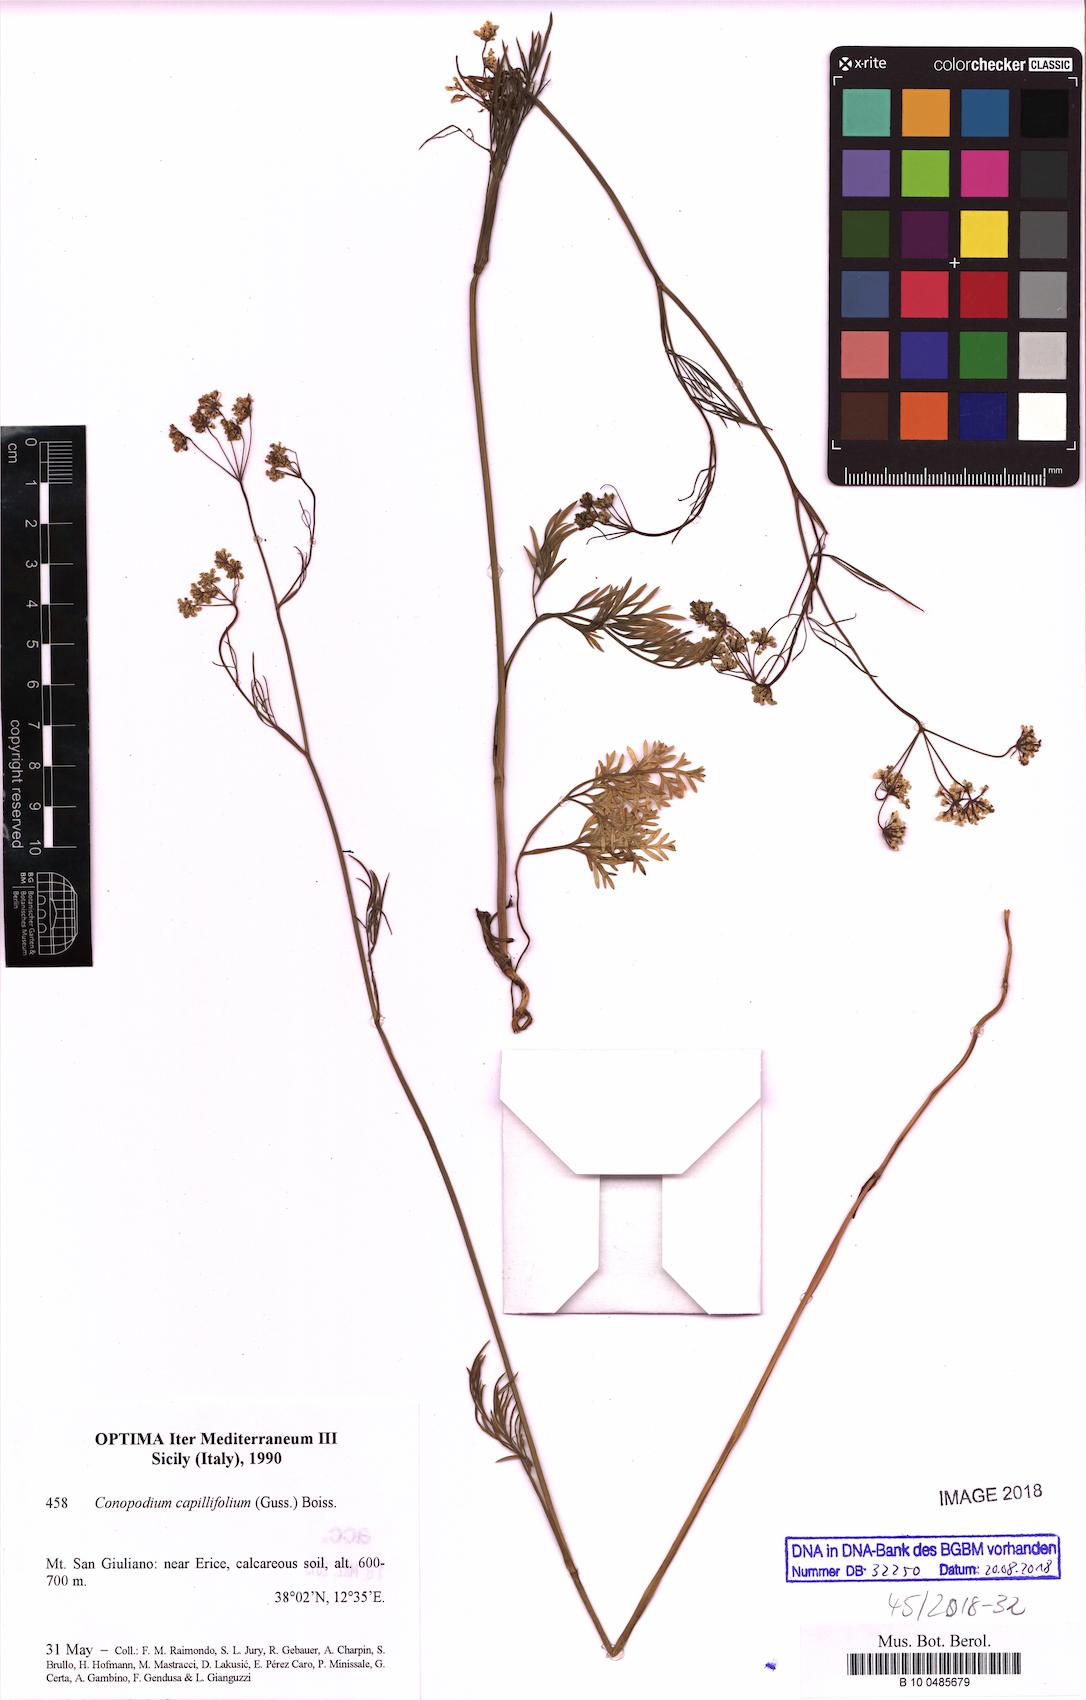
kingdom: Plantae
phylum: Tracheophyta
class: Magnoliopsida
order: Apiales
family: Apiaceae
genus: Geocaryum
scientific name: Geocaryum capillifolium
